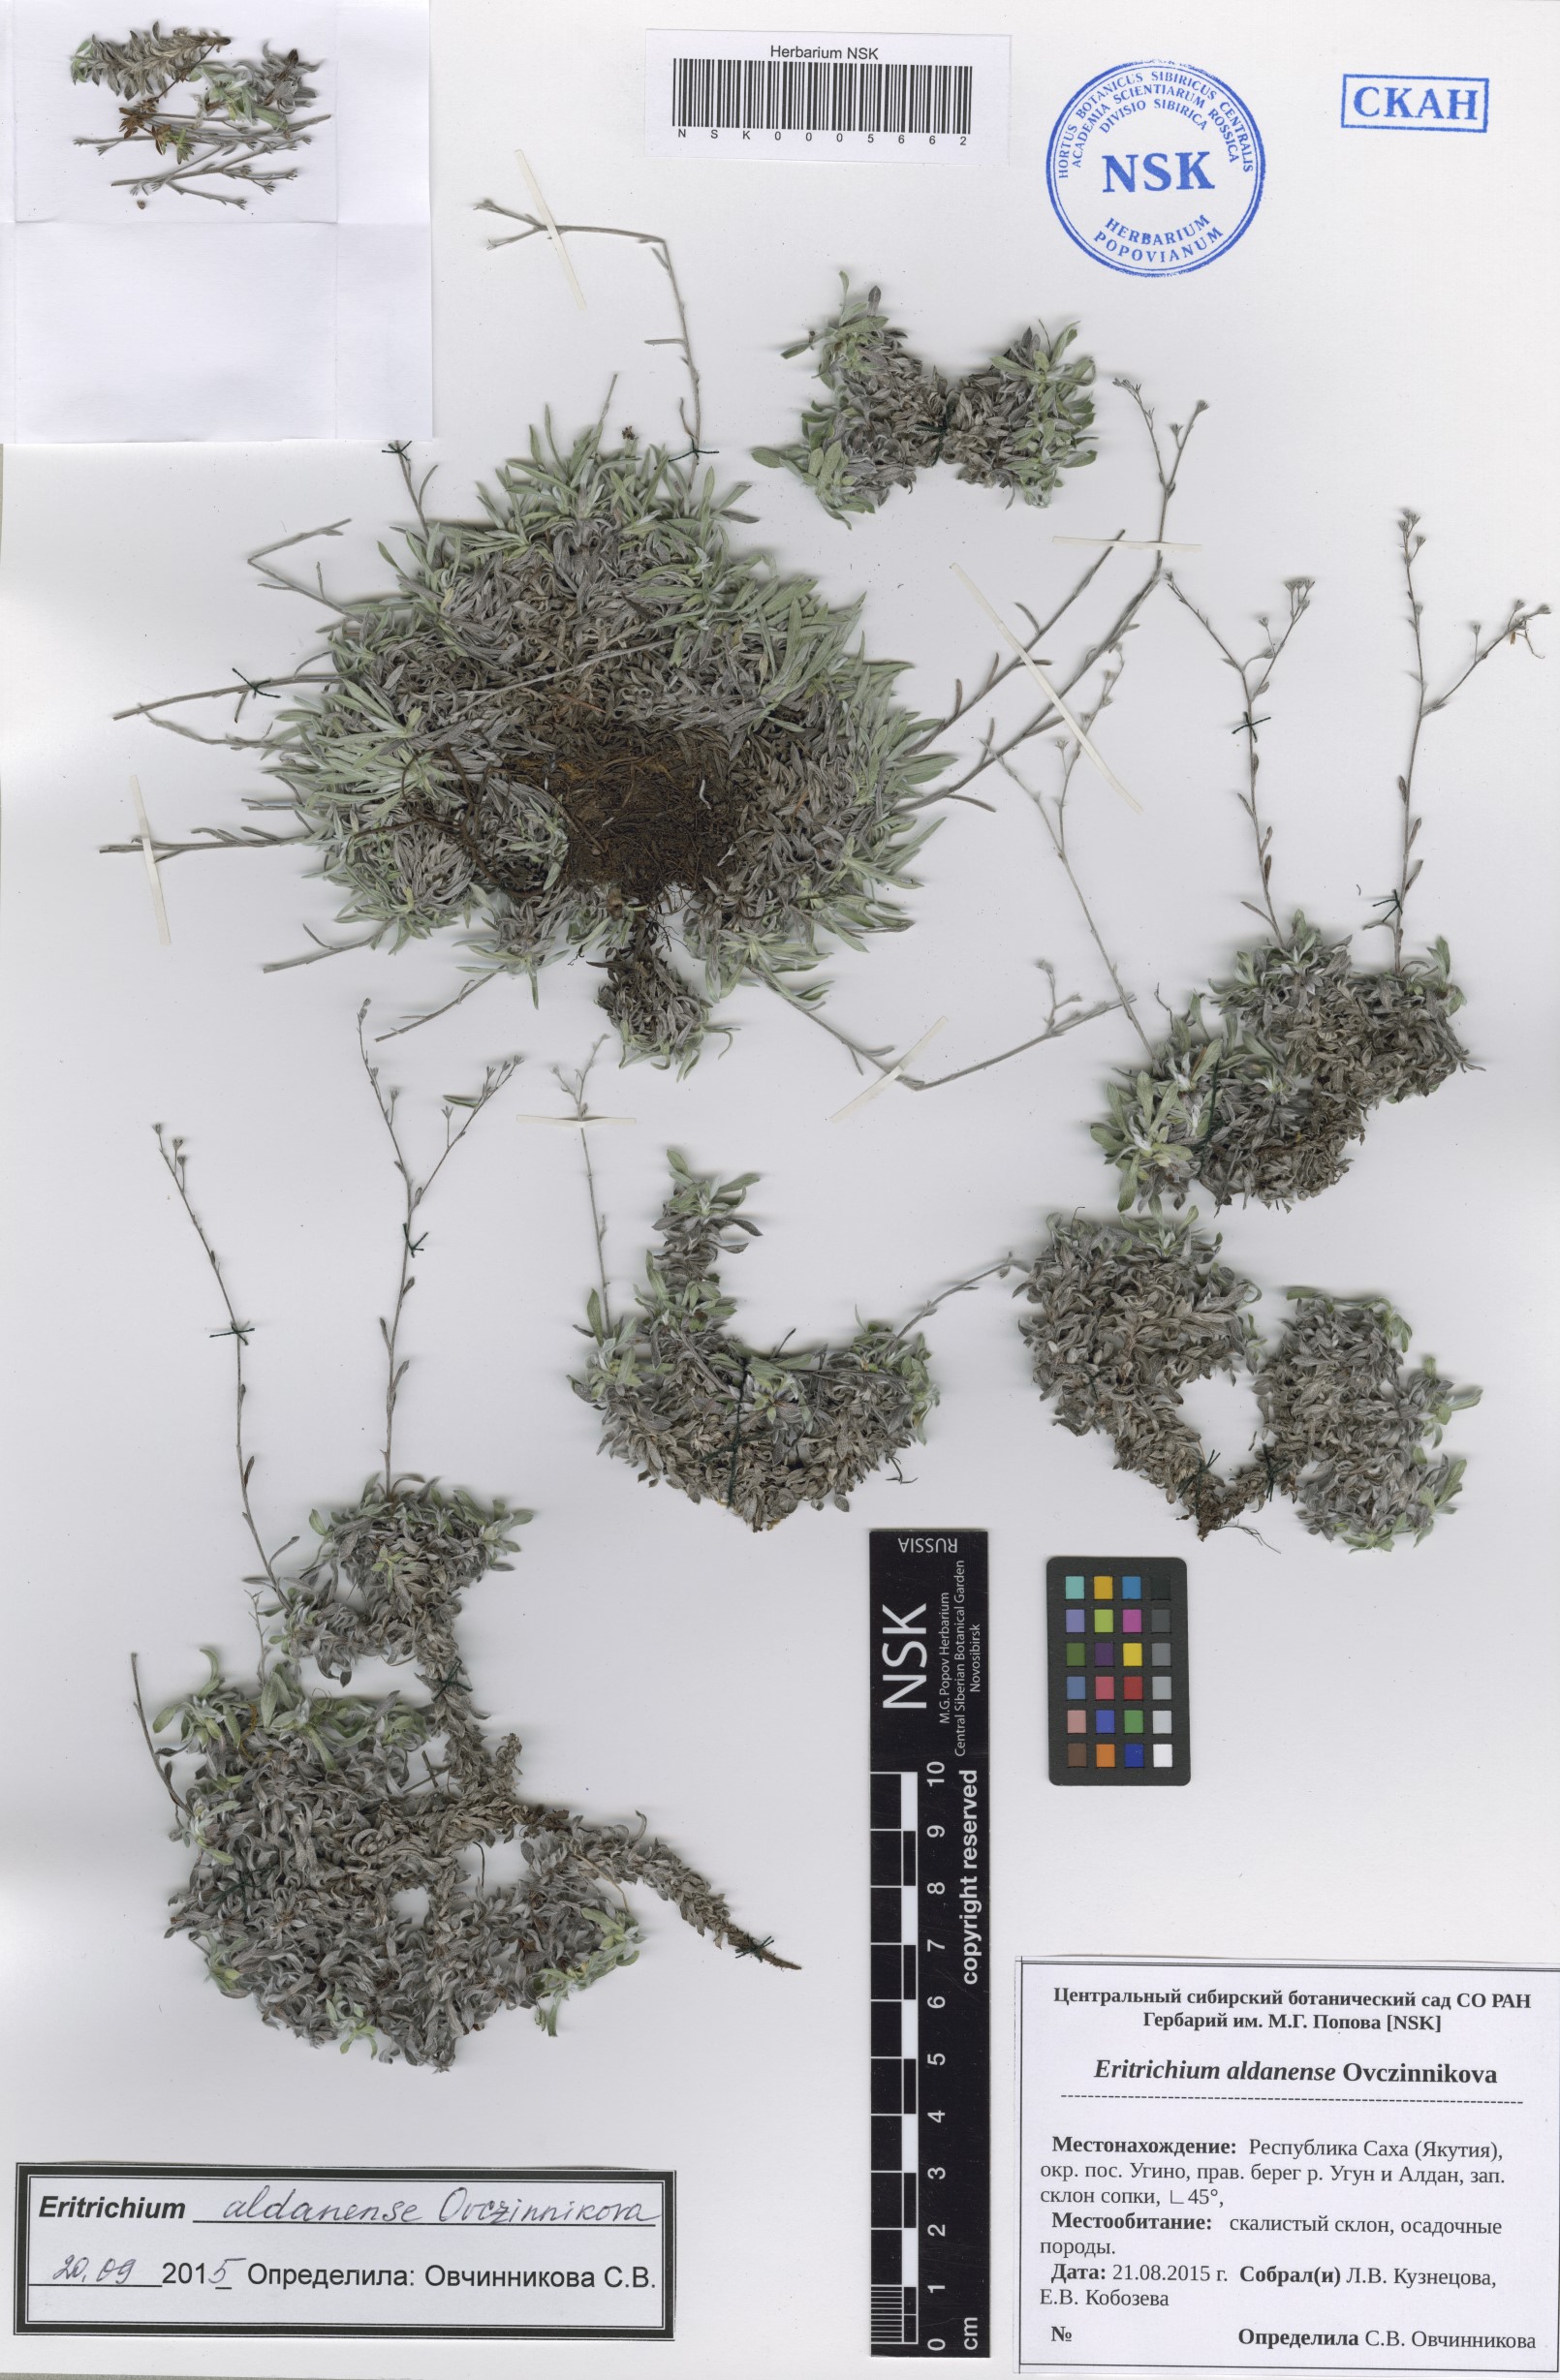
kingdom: Plantae
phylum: Tracheophyta
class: Magnoliopsida
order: Boraginales
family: Boraginaceae
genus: Eritrichium
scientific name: Eritrichium aldanense
